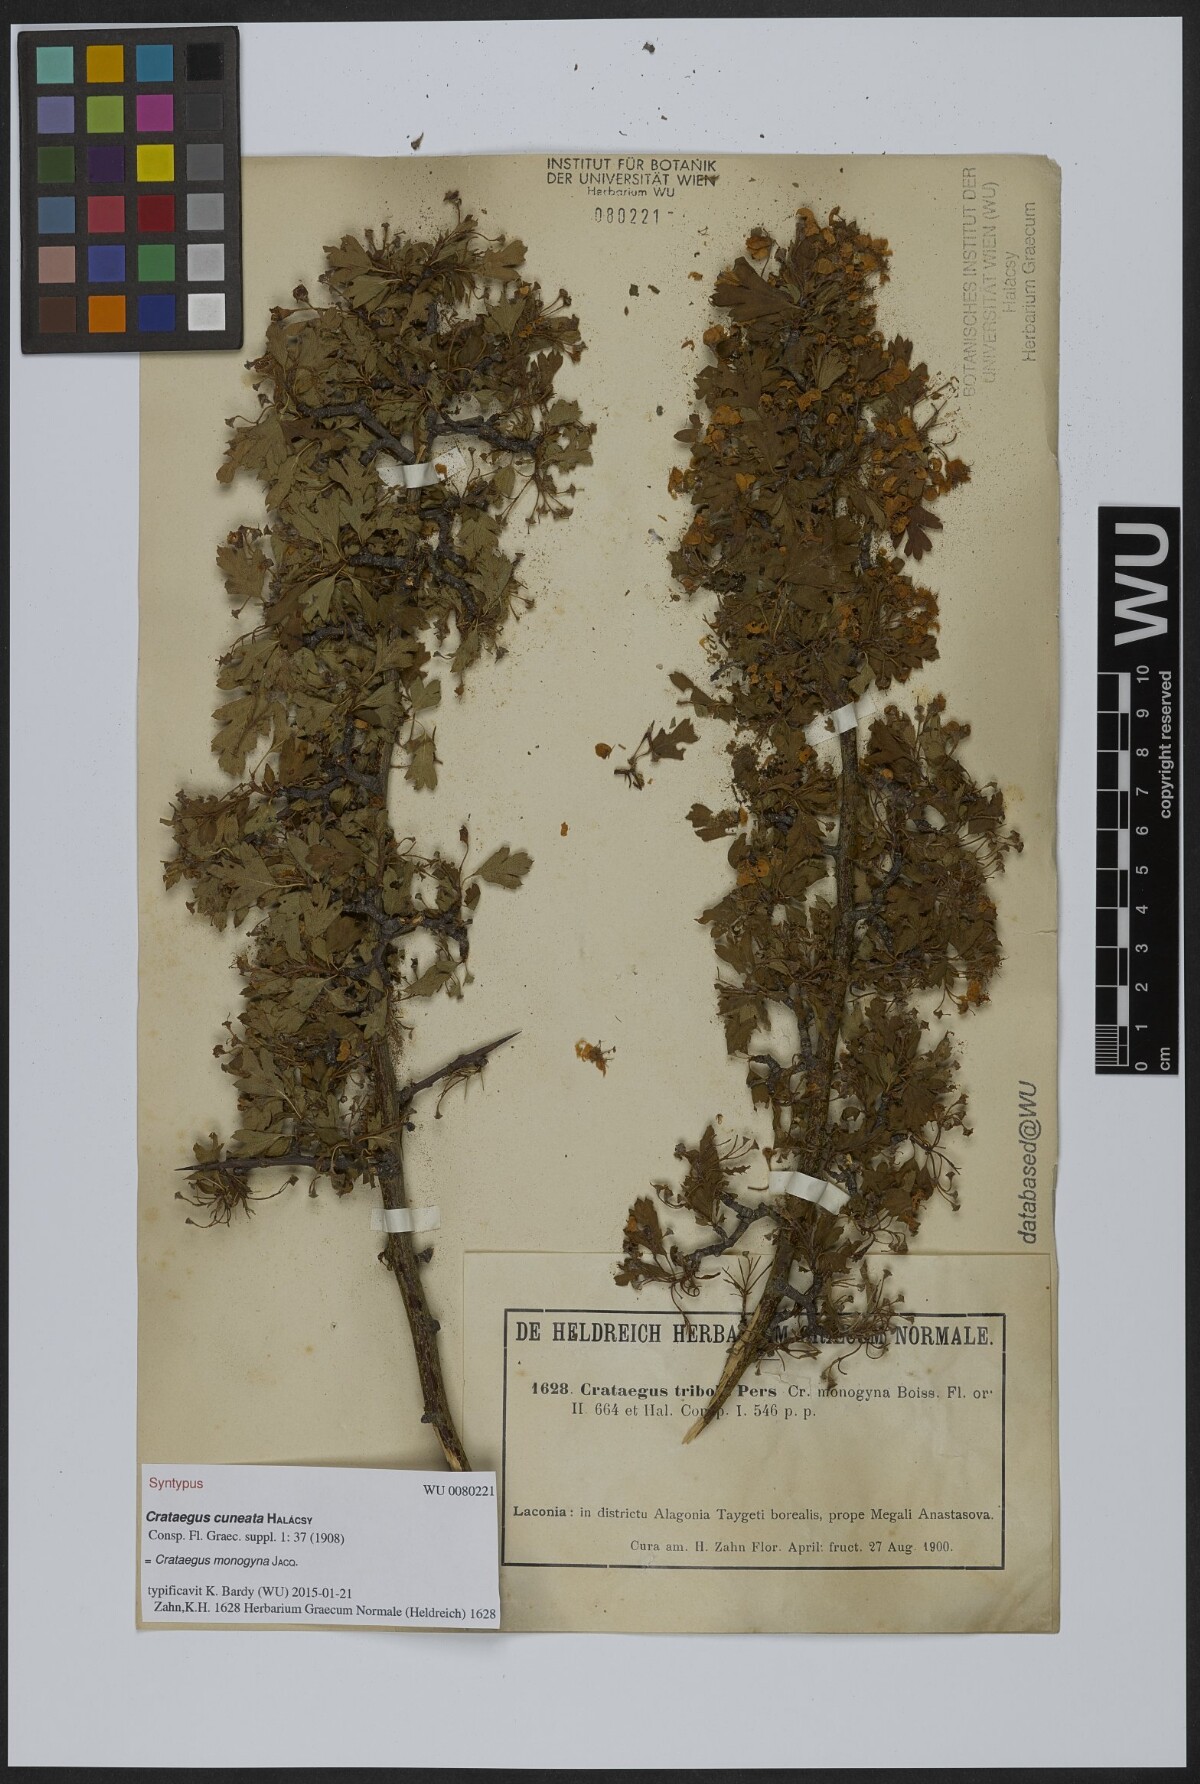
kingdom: Plantae
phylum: Tracheophyta
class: Magnoliopsida
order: Rosales
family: Rosaceae
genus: Crataegus
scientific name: Crataegus monogyna
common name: Hawthorn
